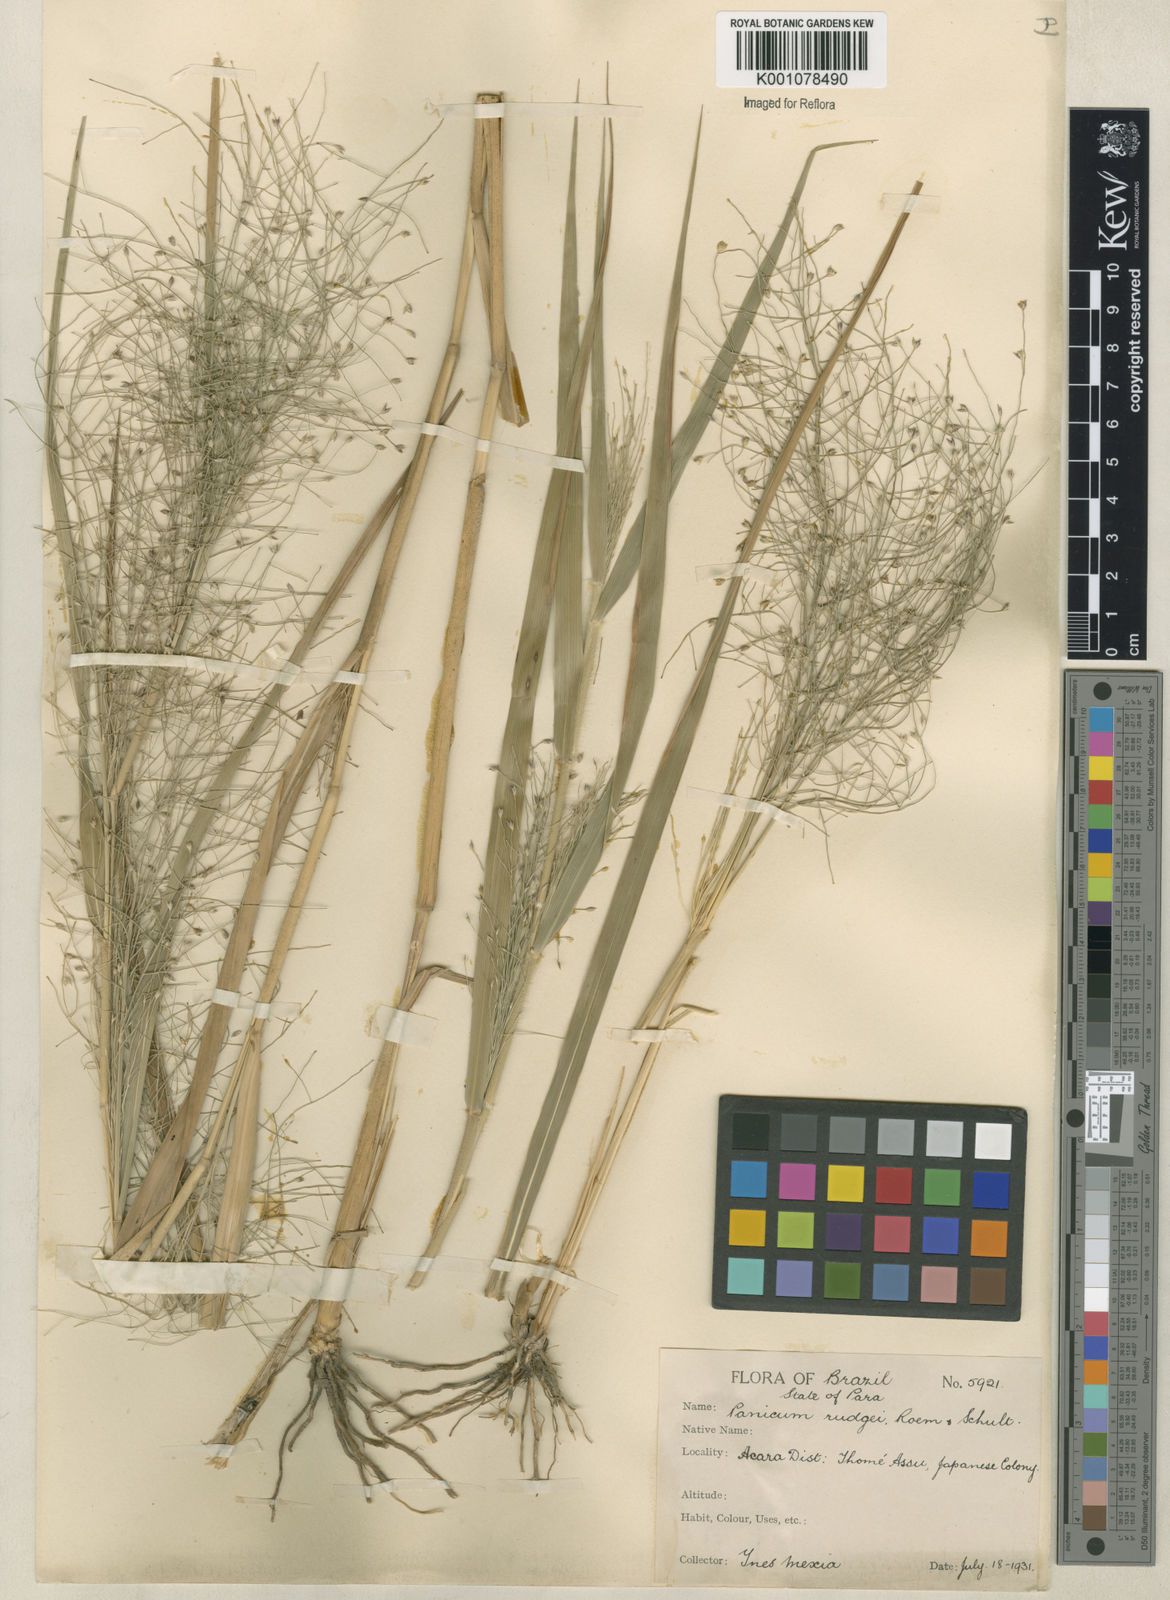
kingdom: Plantae
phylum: Tracheophyta
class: Liliopsida
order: Poales
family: Poaceae
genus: Panicum
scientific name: Panicum rudgei
